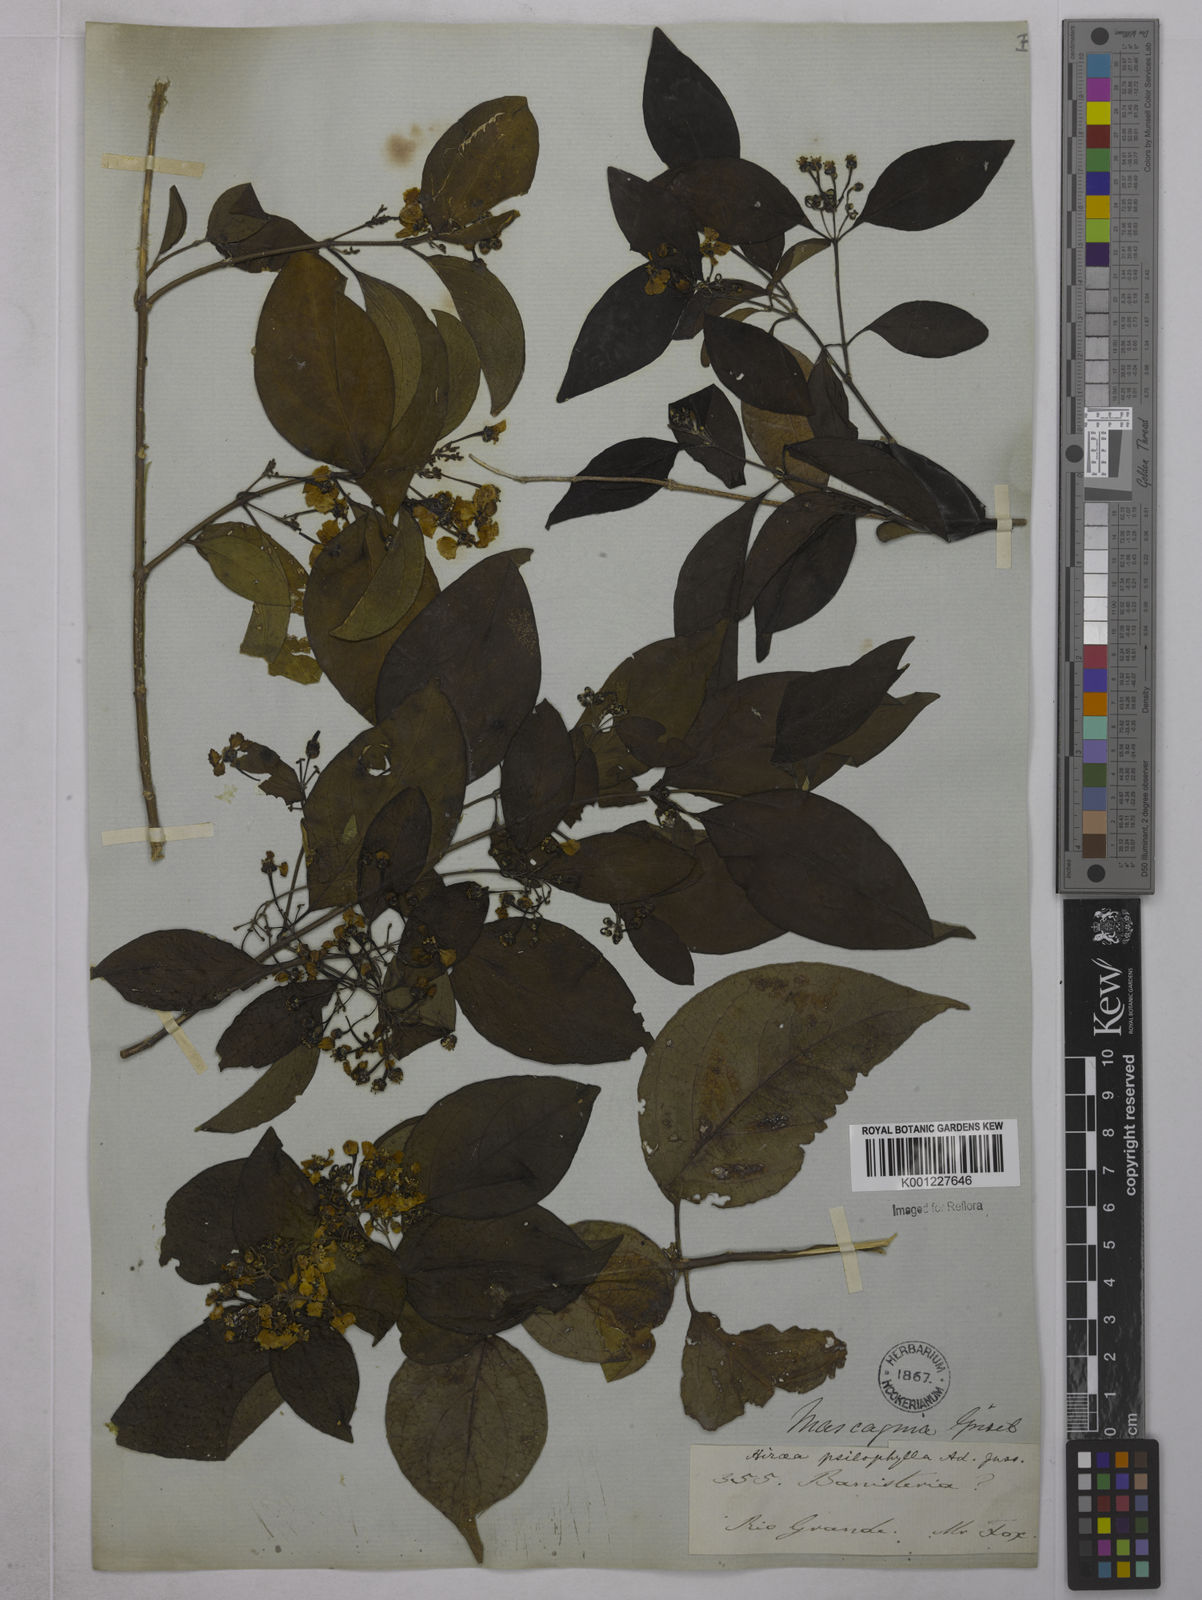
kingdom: Plantae
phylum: Tracheophyta
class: Magnoliopsida
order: Malpighiales
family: Malpighiaceae
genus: Callaeum
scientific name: Callaeum psilophyllum
